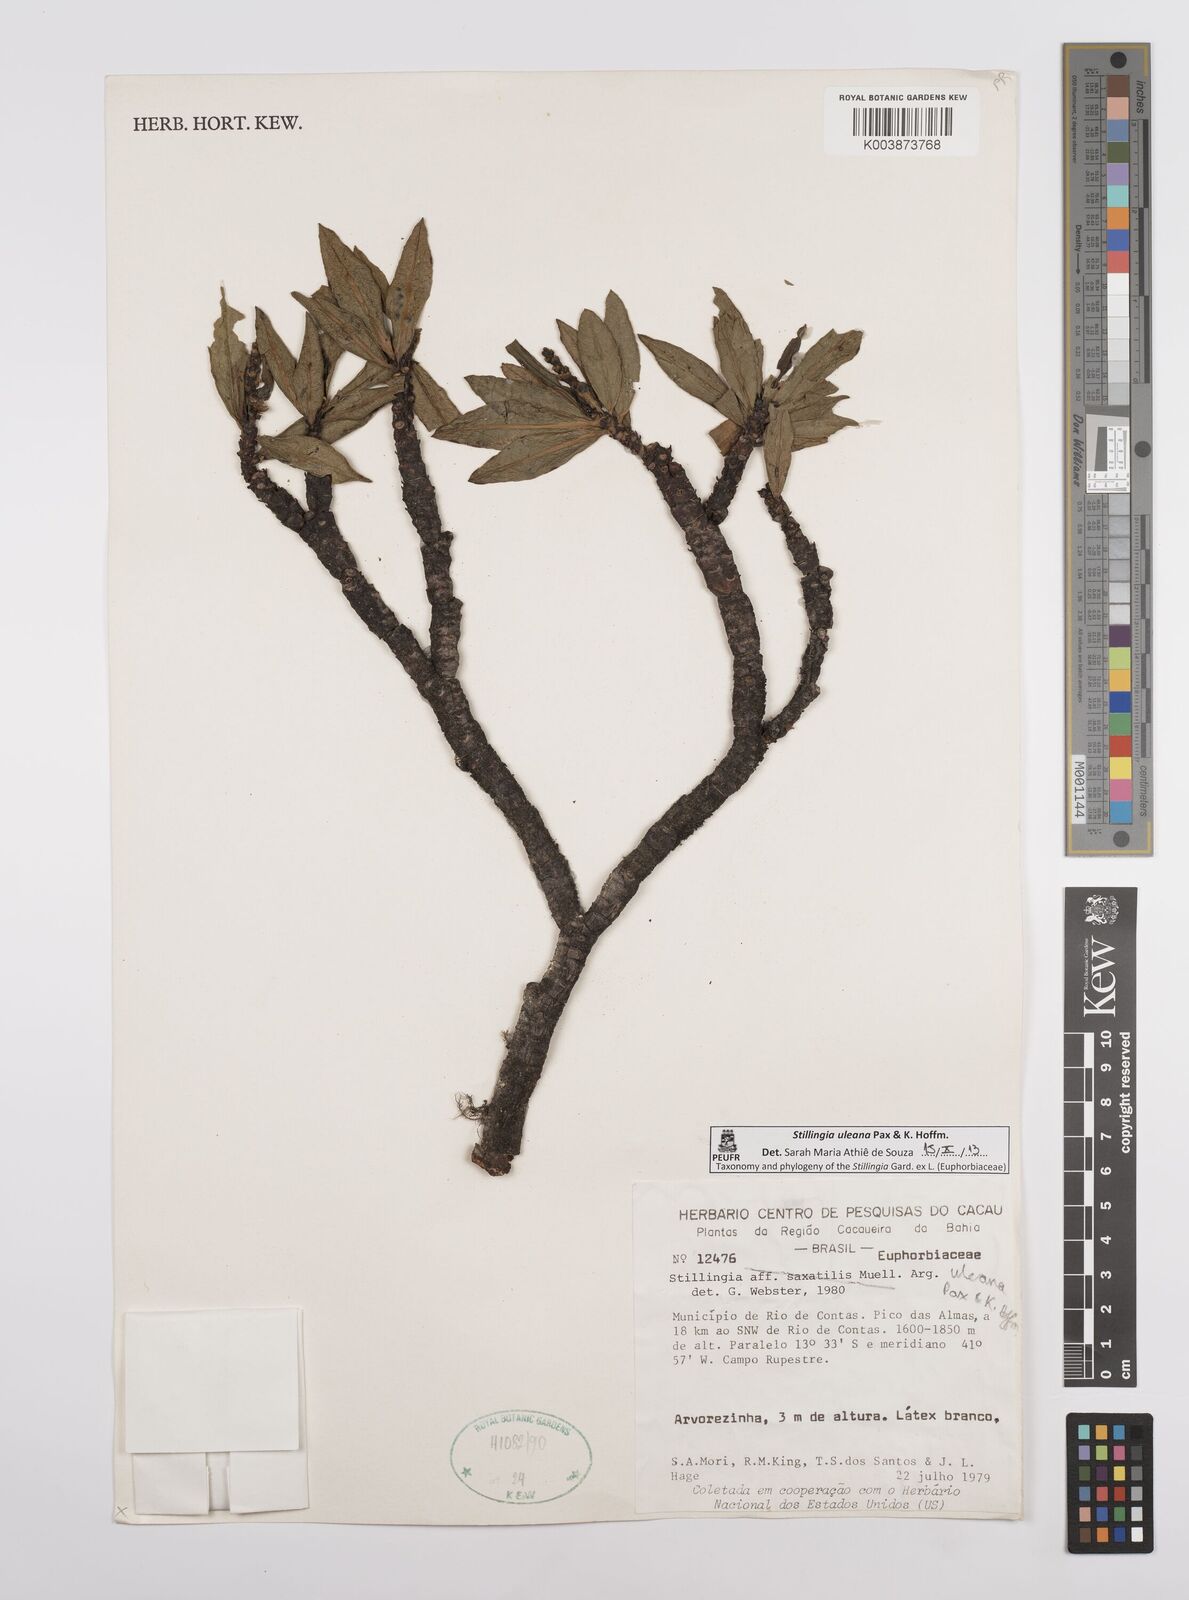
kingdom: Plantae
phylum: Tracheophyta
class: Magnoliopsida
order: Malpighiales
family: Euphorbiaceae
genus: Stillingia
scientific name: Stillingia uleana
